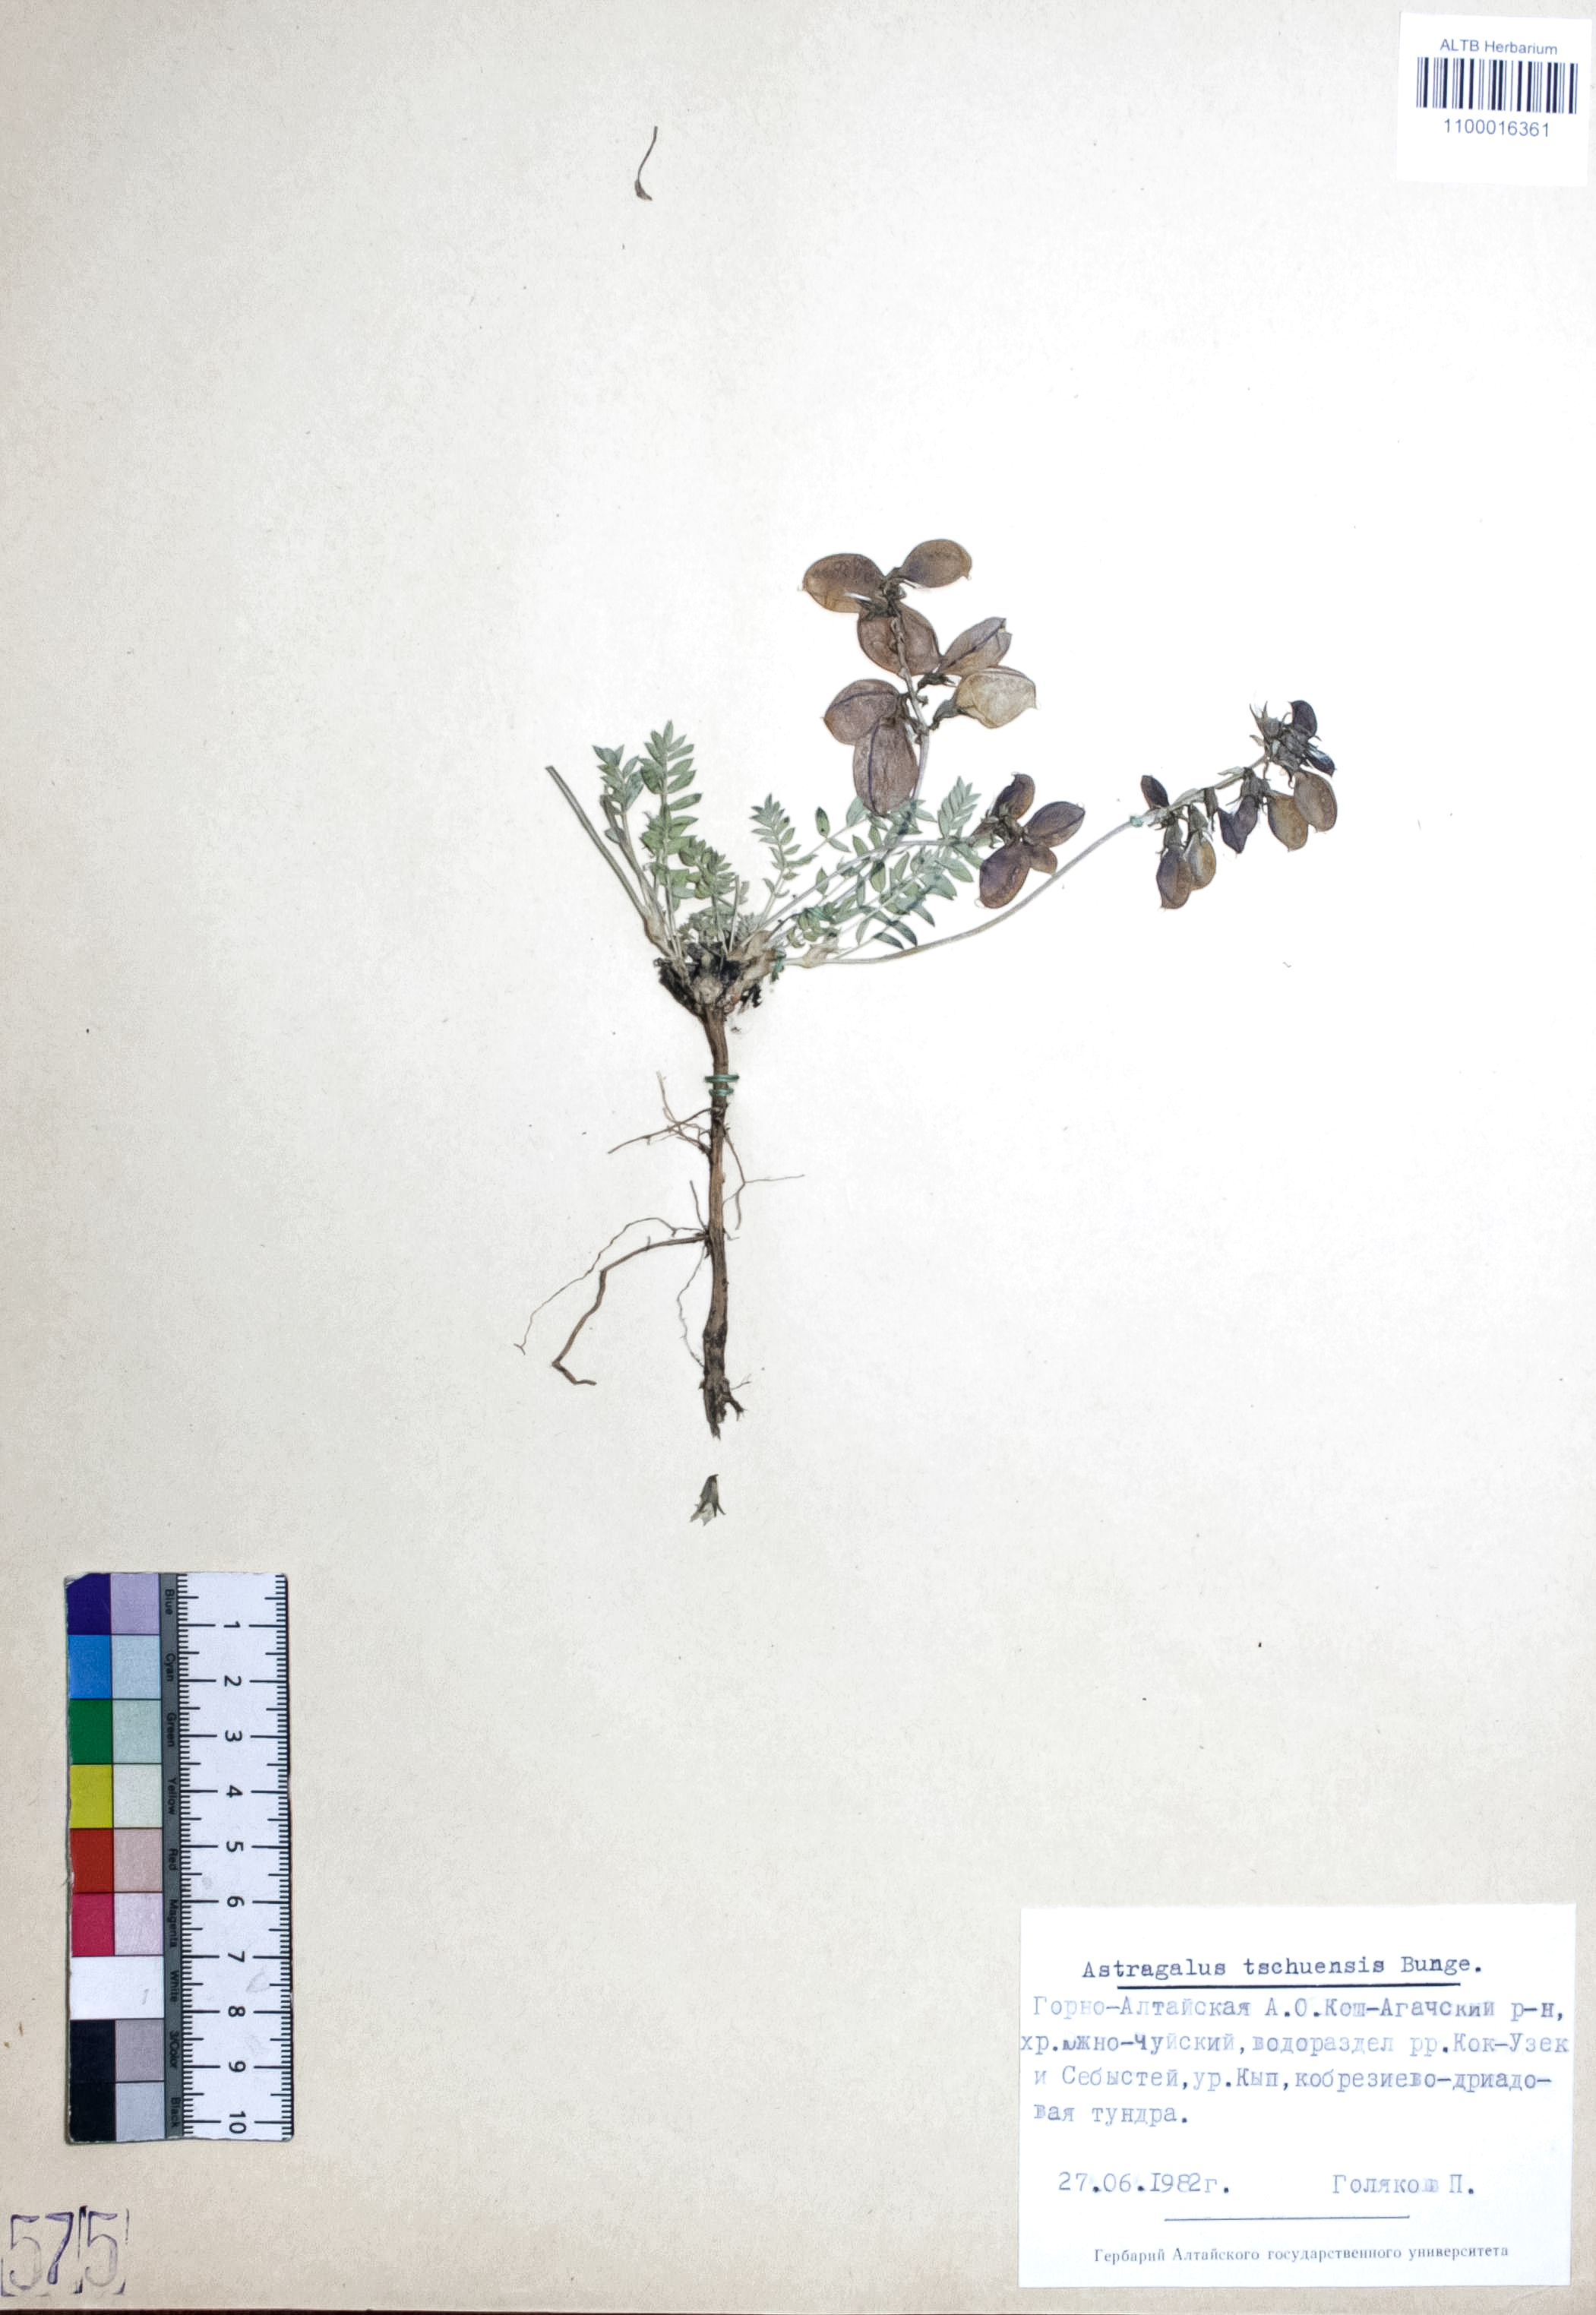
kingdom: Plantae
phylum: Tracheophyta
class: Magnoliopsida
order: Fabales
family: Fabaceae
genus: Astragalus
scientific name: Astragalus tschujensis
